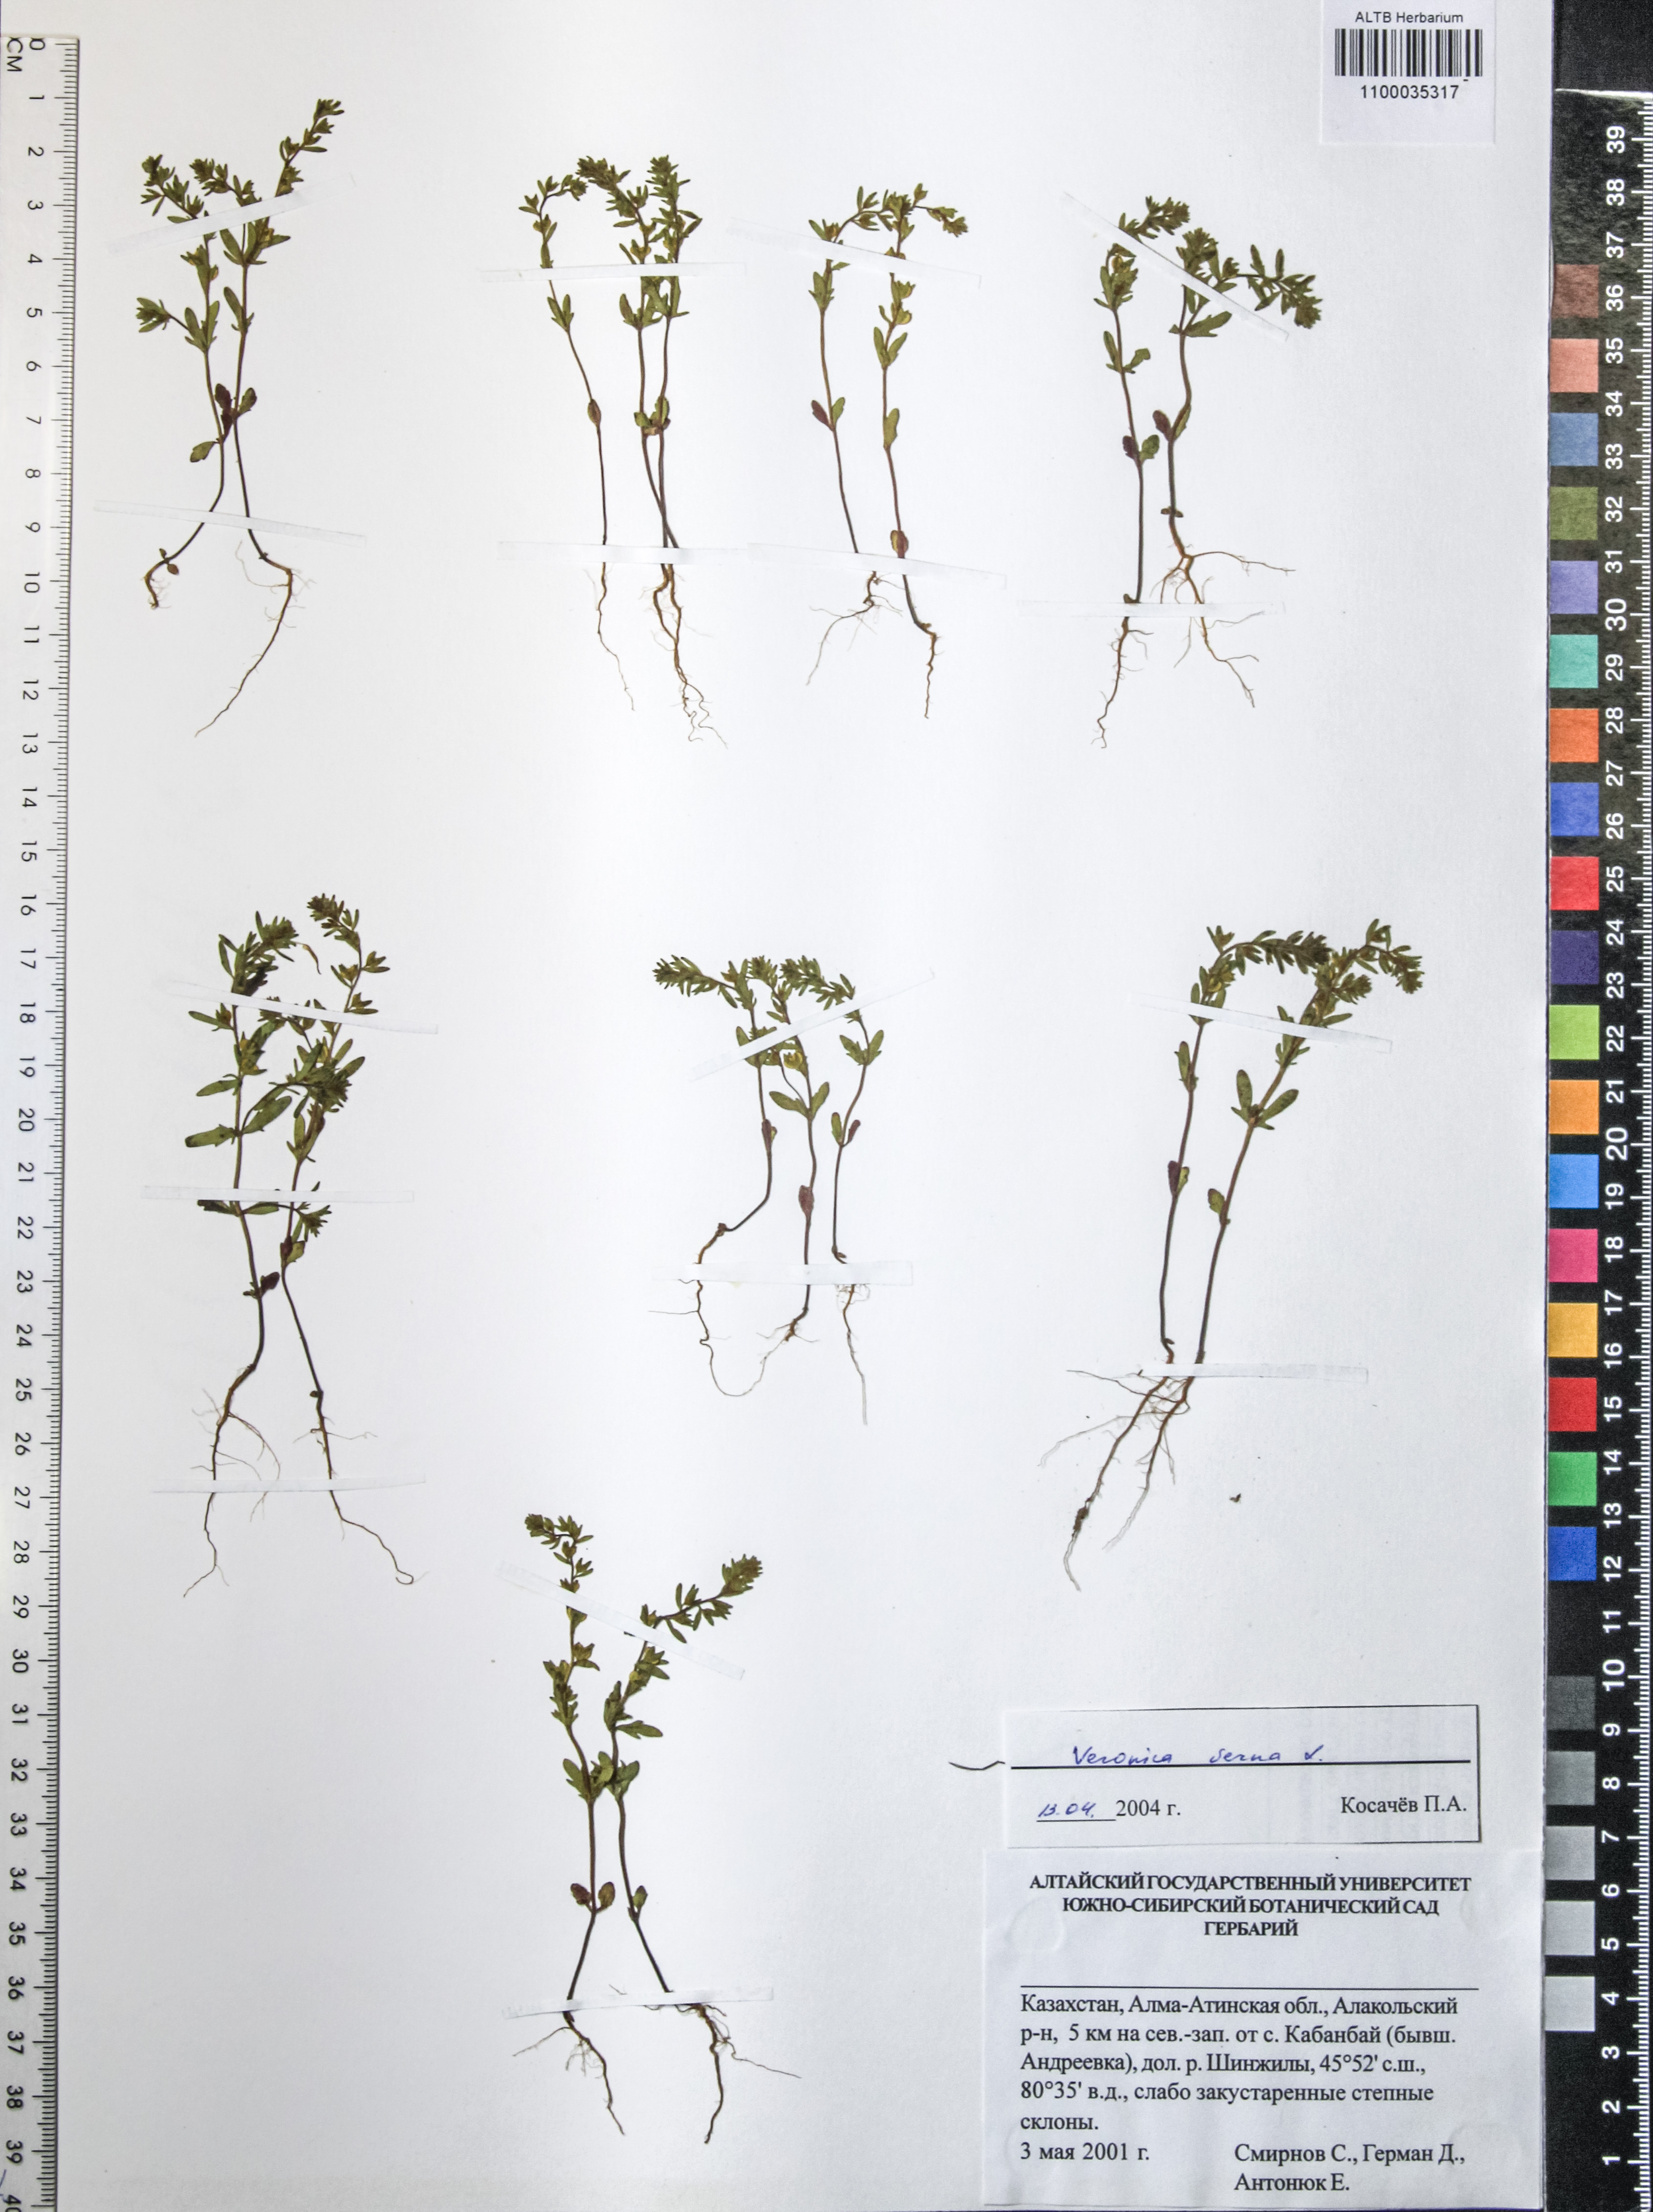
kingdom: Plantae
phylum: Tracheophyta
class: Magnoliopsida
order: Lamiales
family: Plantaginaceae
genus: Veronica
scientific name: Veronica verna
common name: Spring speedwell
